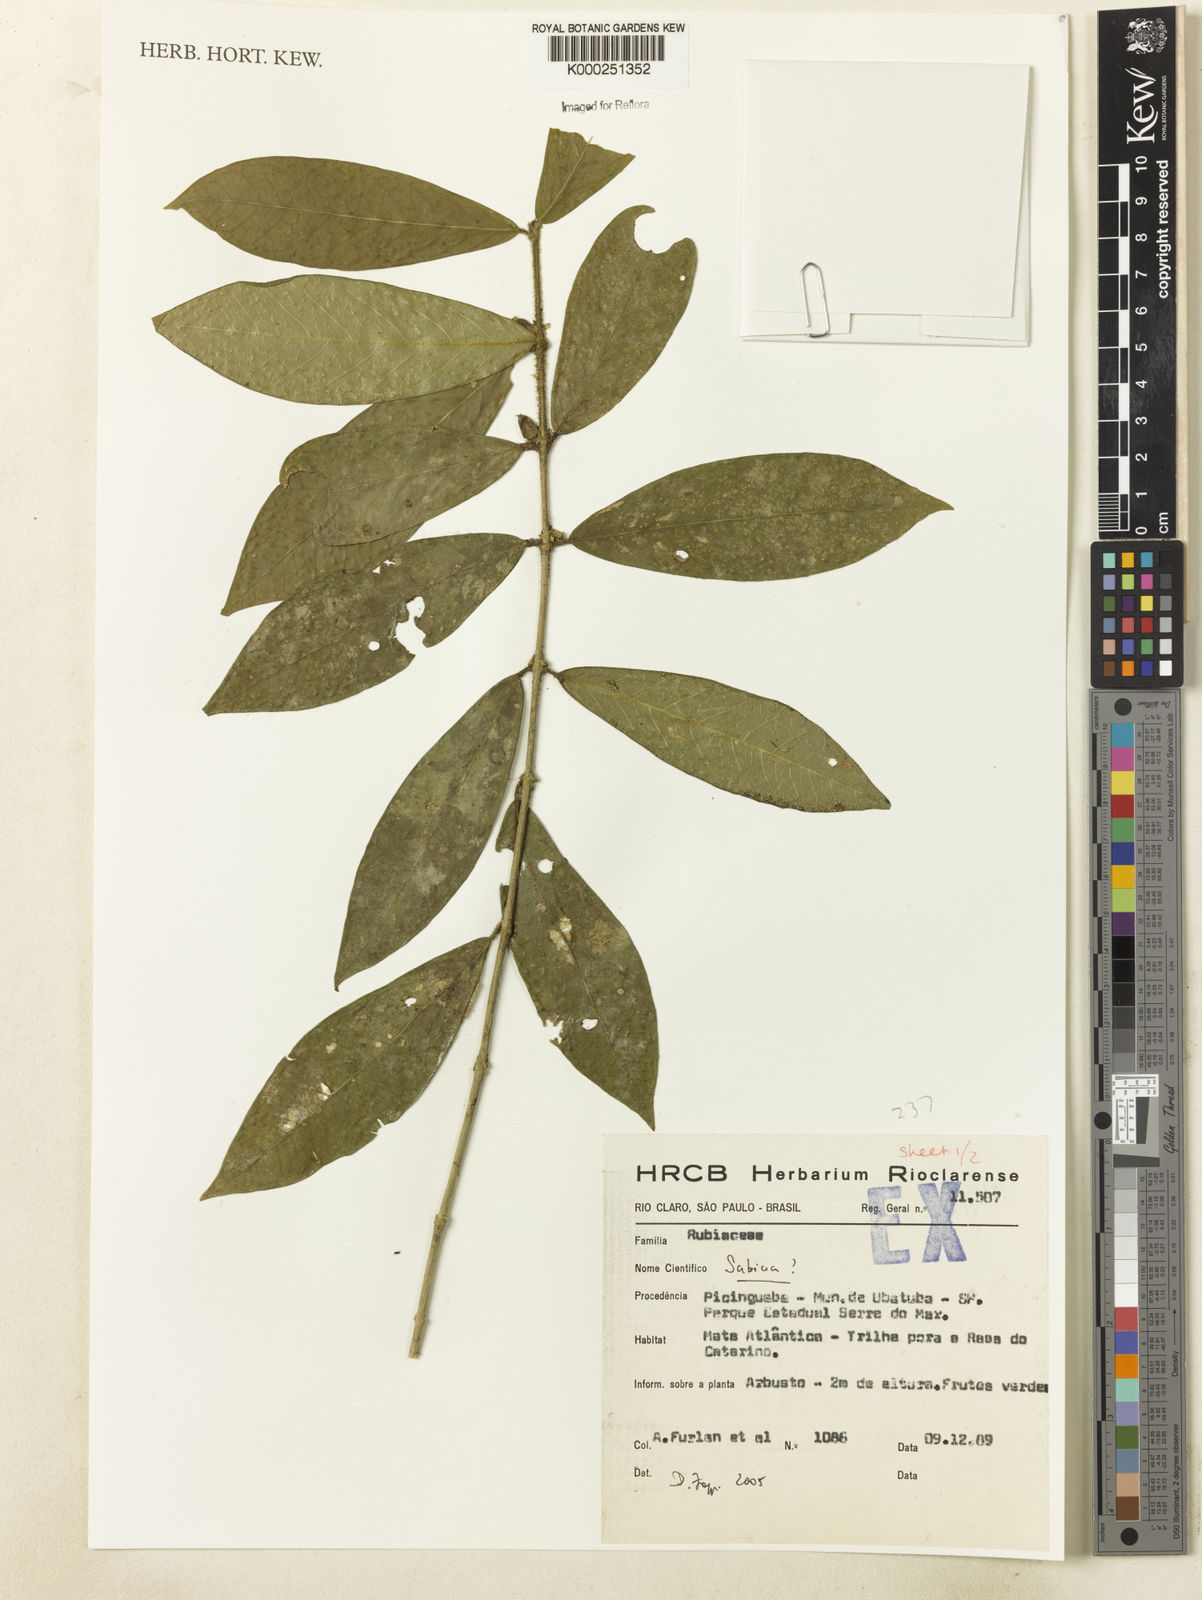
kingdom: Plantae
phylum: Tracheophyta
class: Magnoliopsida
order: Gentianales
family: Rubiaceae
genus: Sabicea
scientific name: Sabicea
